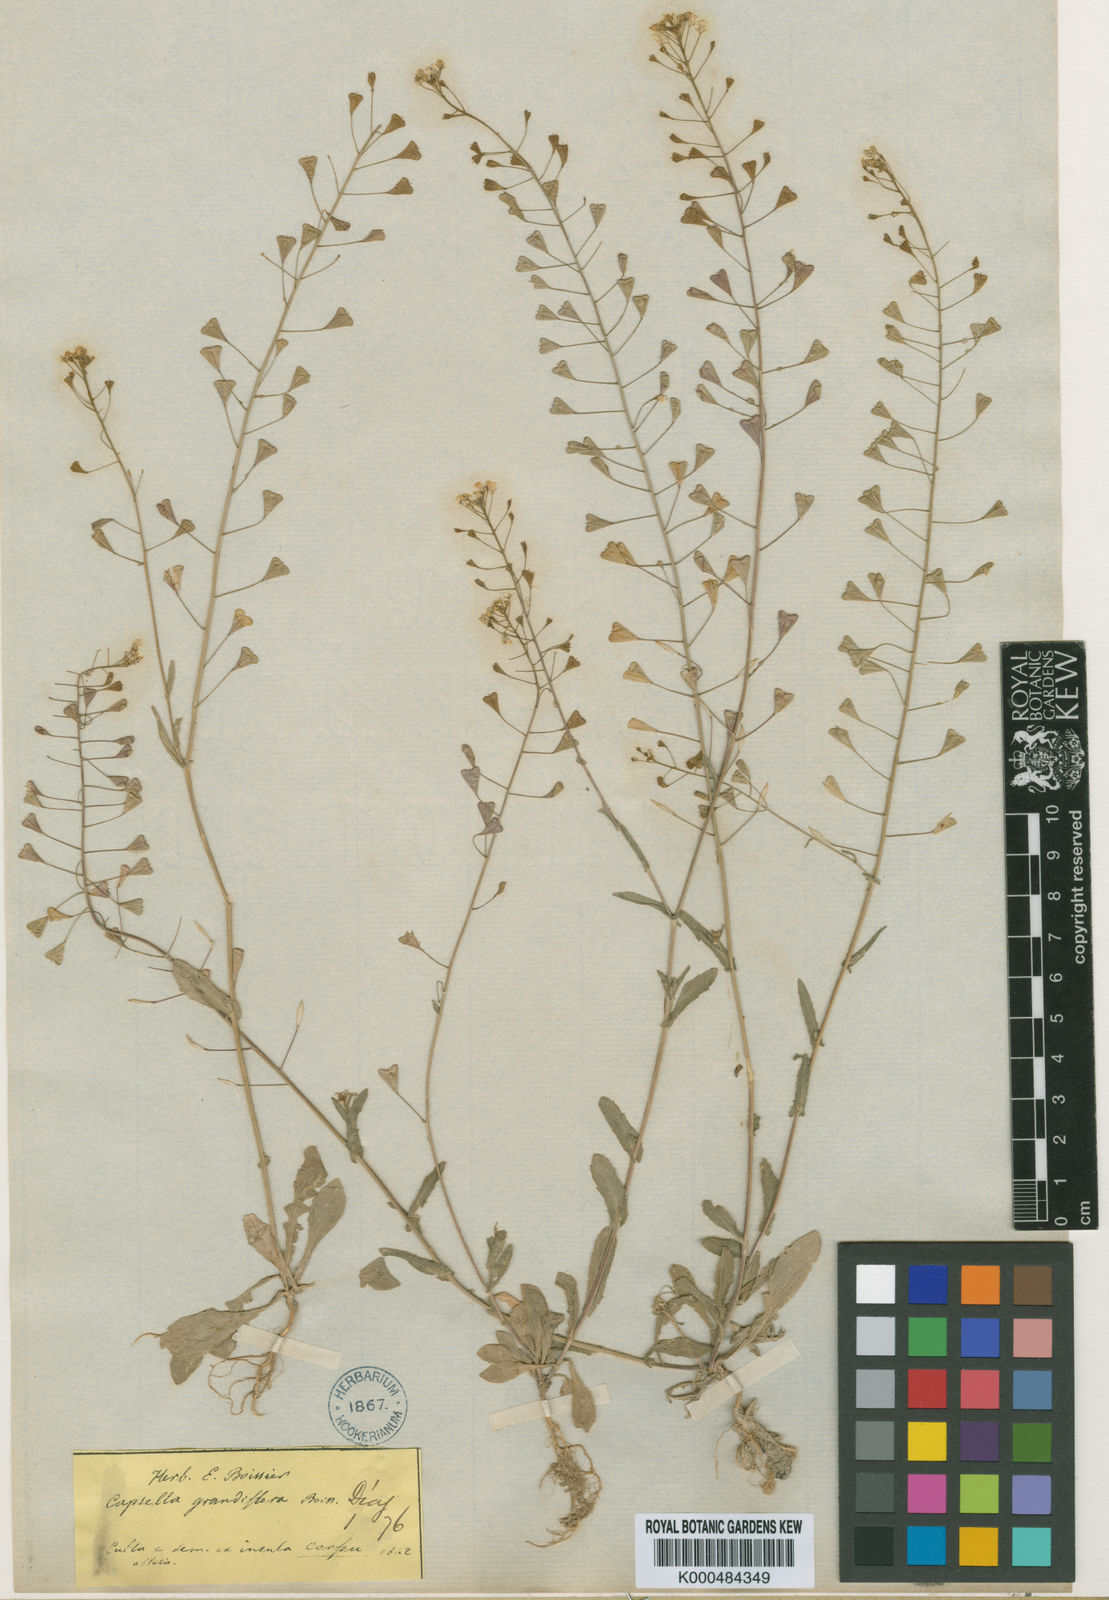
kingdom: Plantae
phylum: Tracheophyta
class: Magnoliopsida
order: Brassicales
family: Brassicaceae
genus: Capsella
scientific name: Capsella grandiflora
